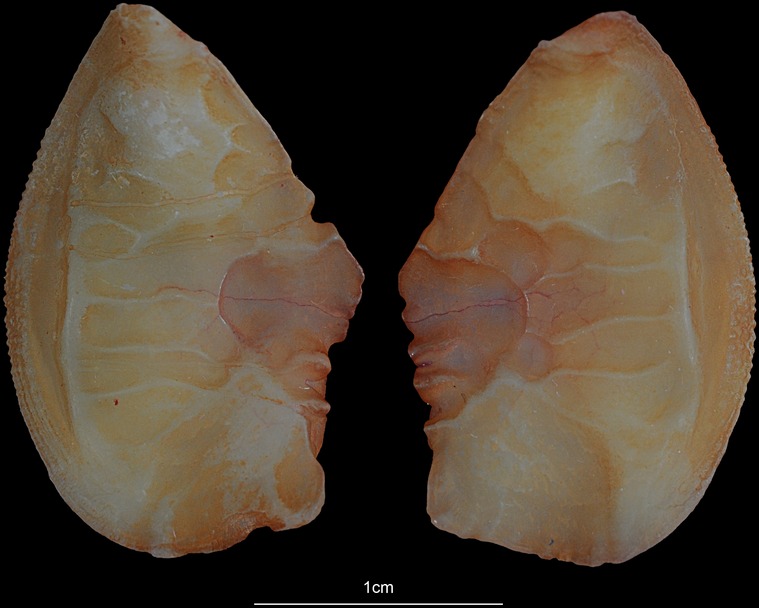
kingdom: Animalia
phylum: Chordata
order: Perciformes
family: Haemulidae
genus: Pomadasys
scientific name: Pomadasys argyreus
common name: Bluecheek silver grunt
